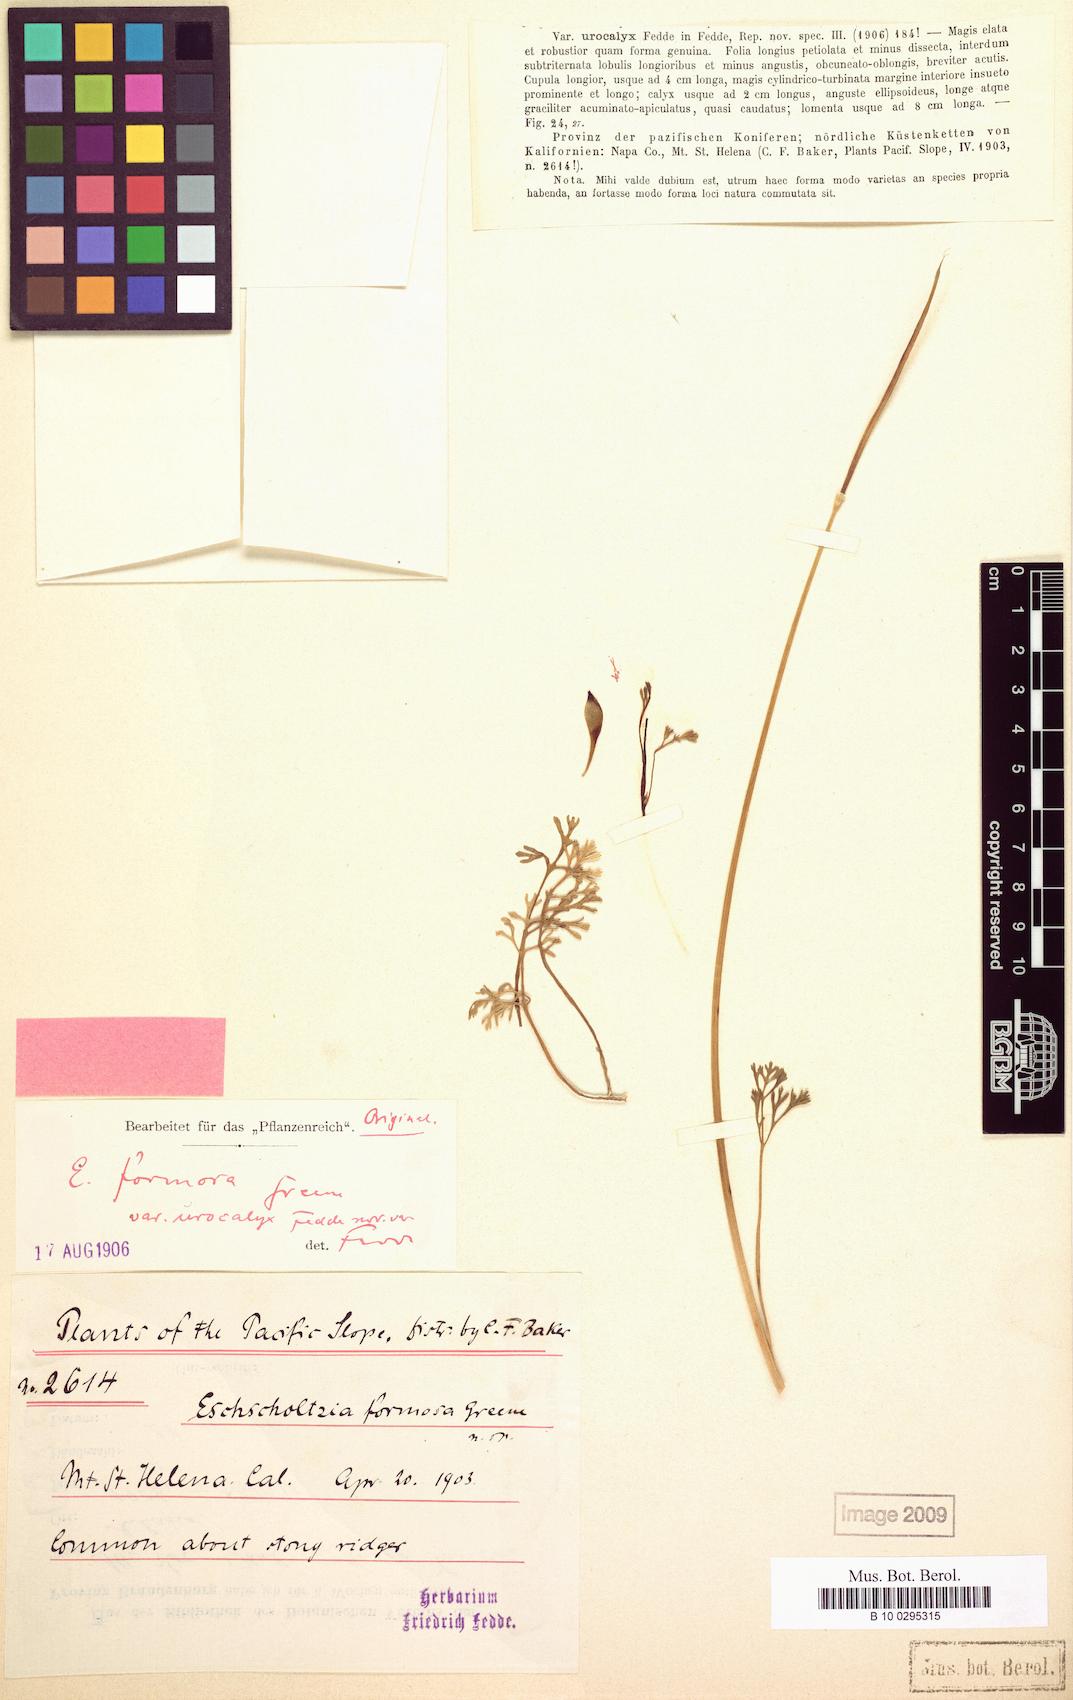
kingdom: Plantae
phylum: Tracheophyta
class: Magnoliopsida
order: Ranunculales
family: Papaveraceae
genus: Eschscholzia
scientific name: Eschscholzia caespitosa
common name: Tufted california-poppy
